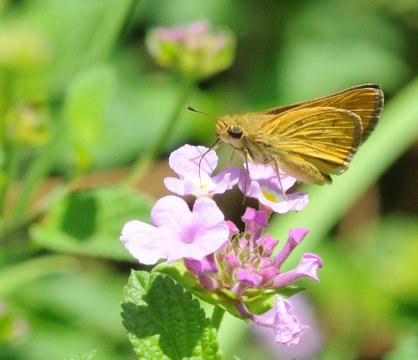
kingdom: Animalia
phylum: Arthropoda
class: Insecta
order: Lepidoptera
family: Hesperiidae
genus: Gegenes
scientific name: Gegenes hottentota
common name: Marsh Hottentot Skipper
